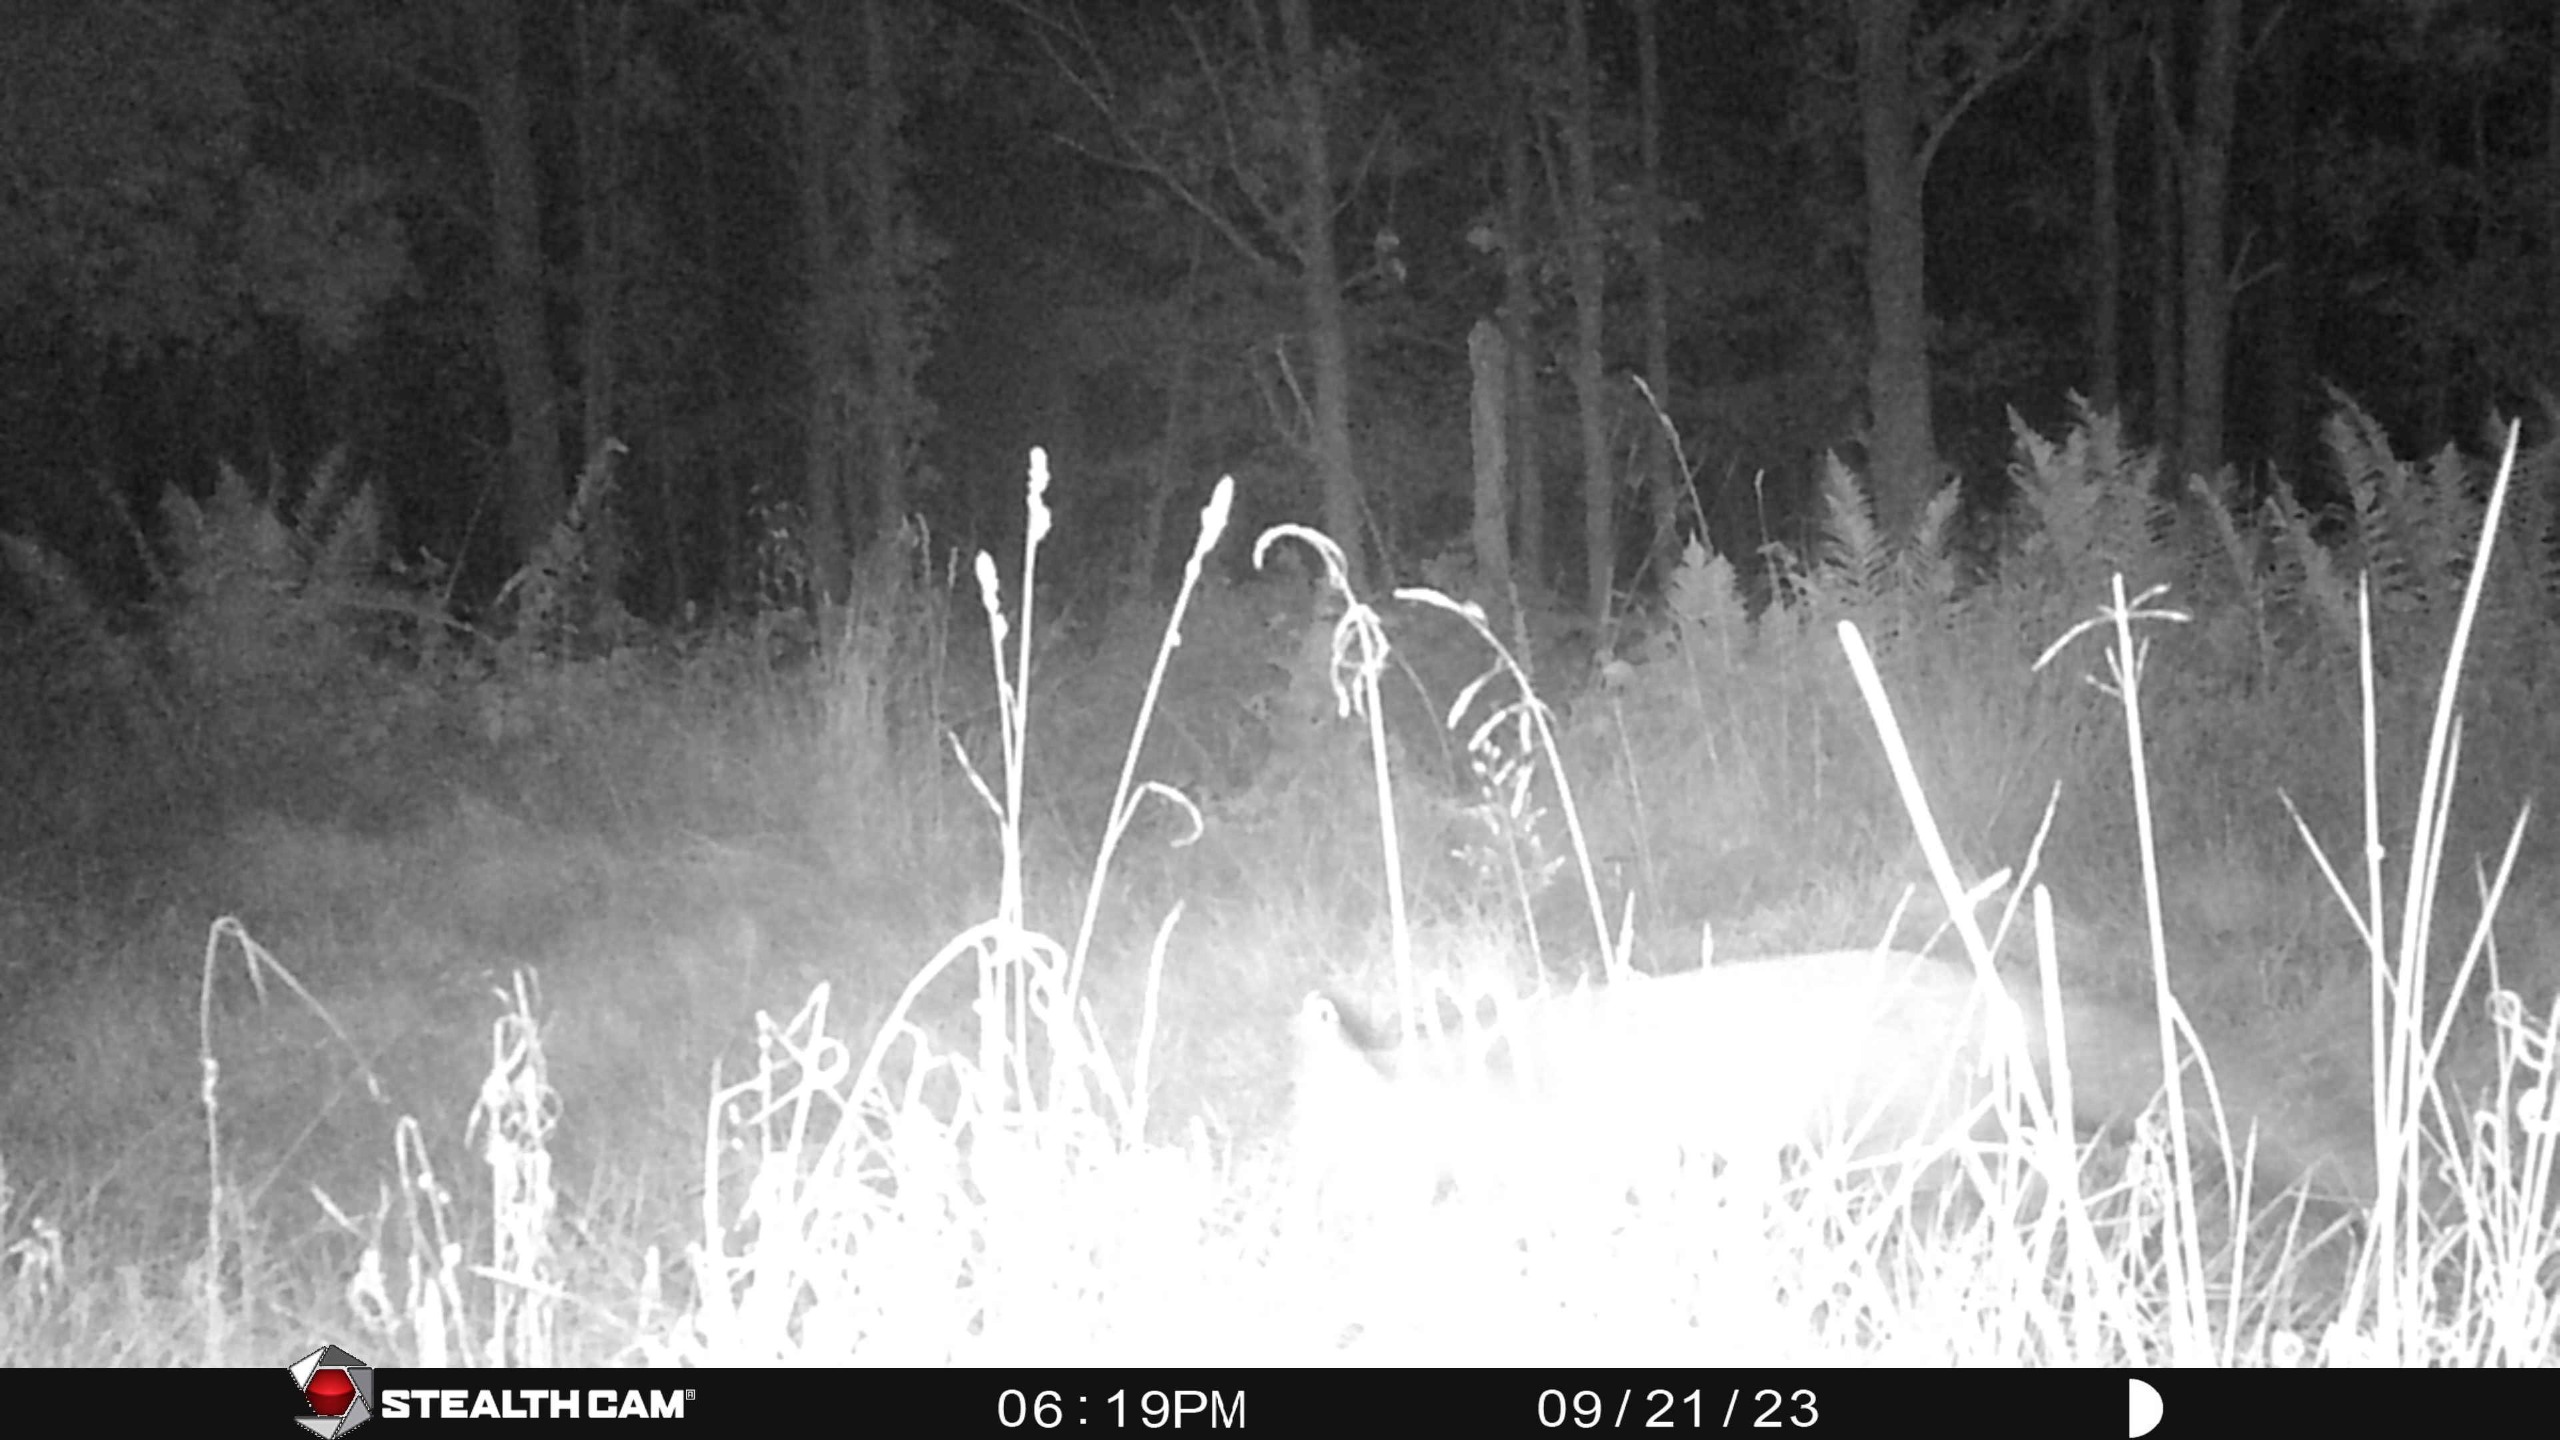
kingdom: Animalia
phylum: Chordata
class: Mammalia
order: Carnivora
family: Canidae
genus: Vulpes
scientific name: Vulpes vulpes
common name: Ræv
